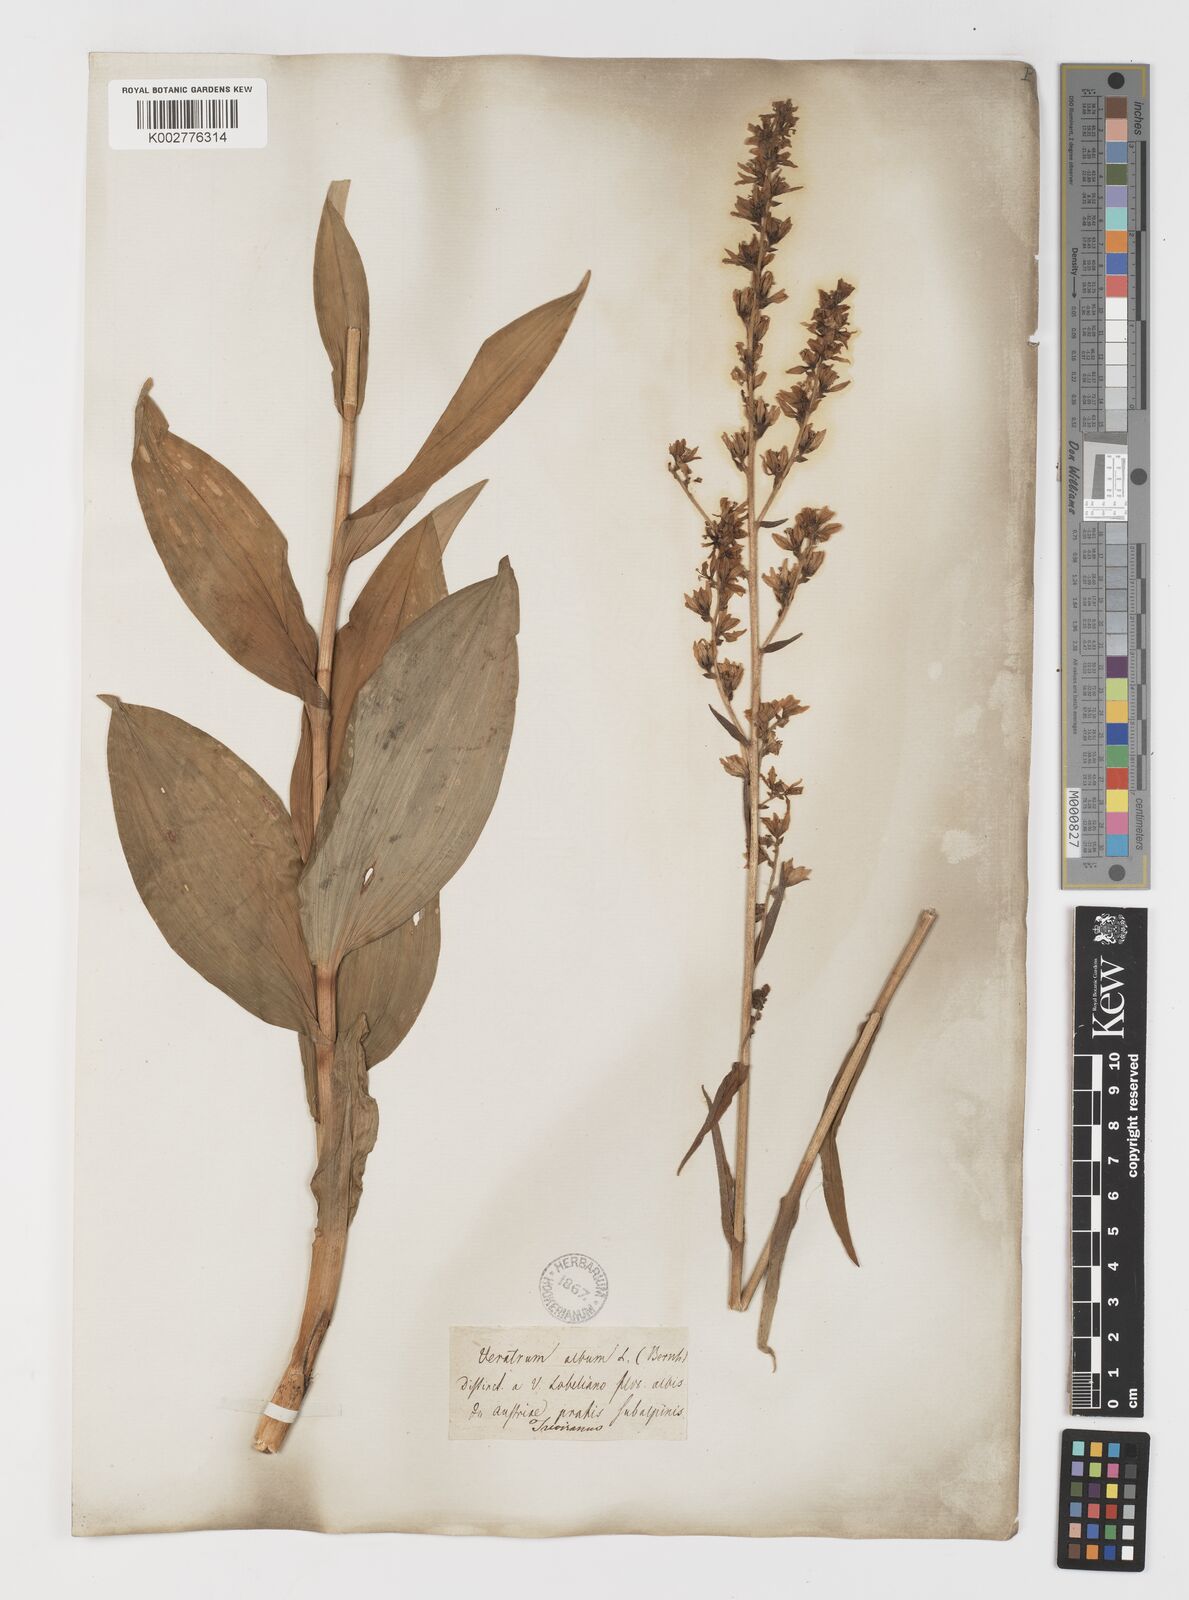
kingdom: Plantae
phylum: Tracheophyta
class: Liliopsida
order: Liliales
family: Melanthiaceae
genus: Veratrum
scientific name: Veratrum album
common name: White veratrum
